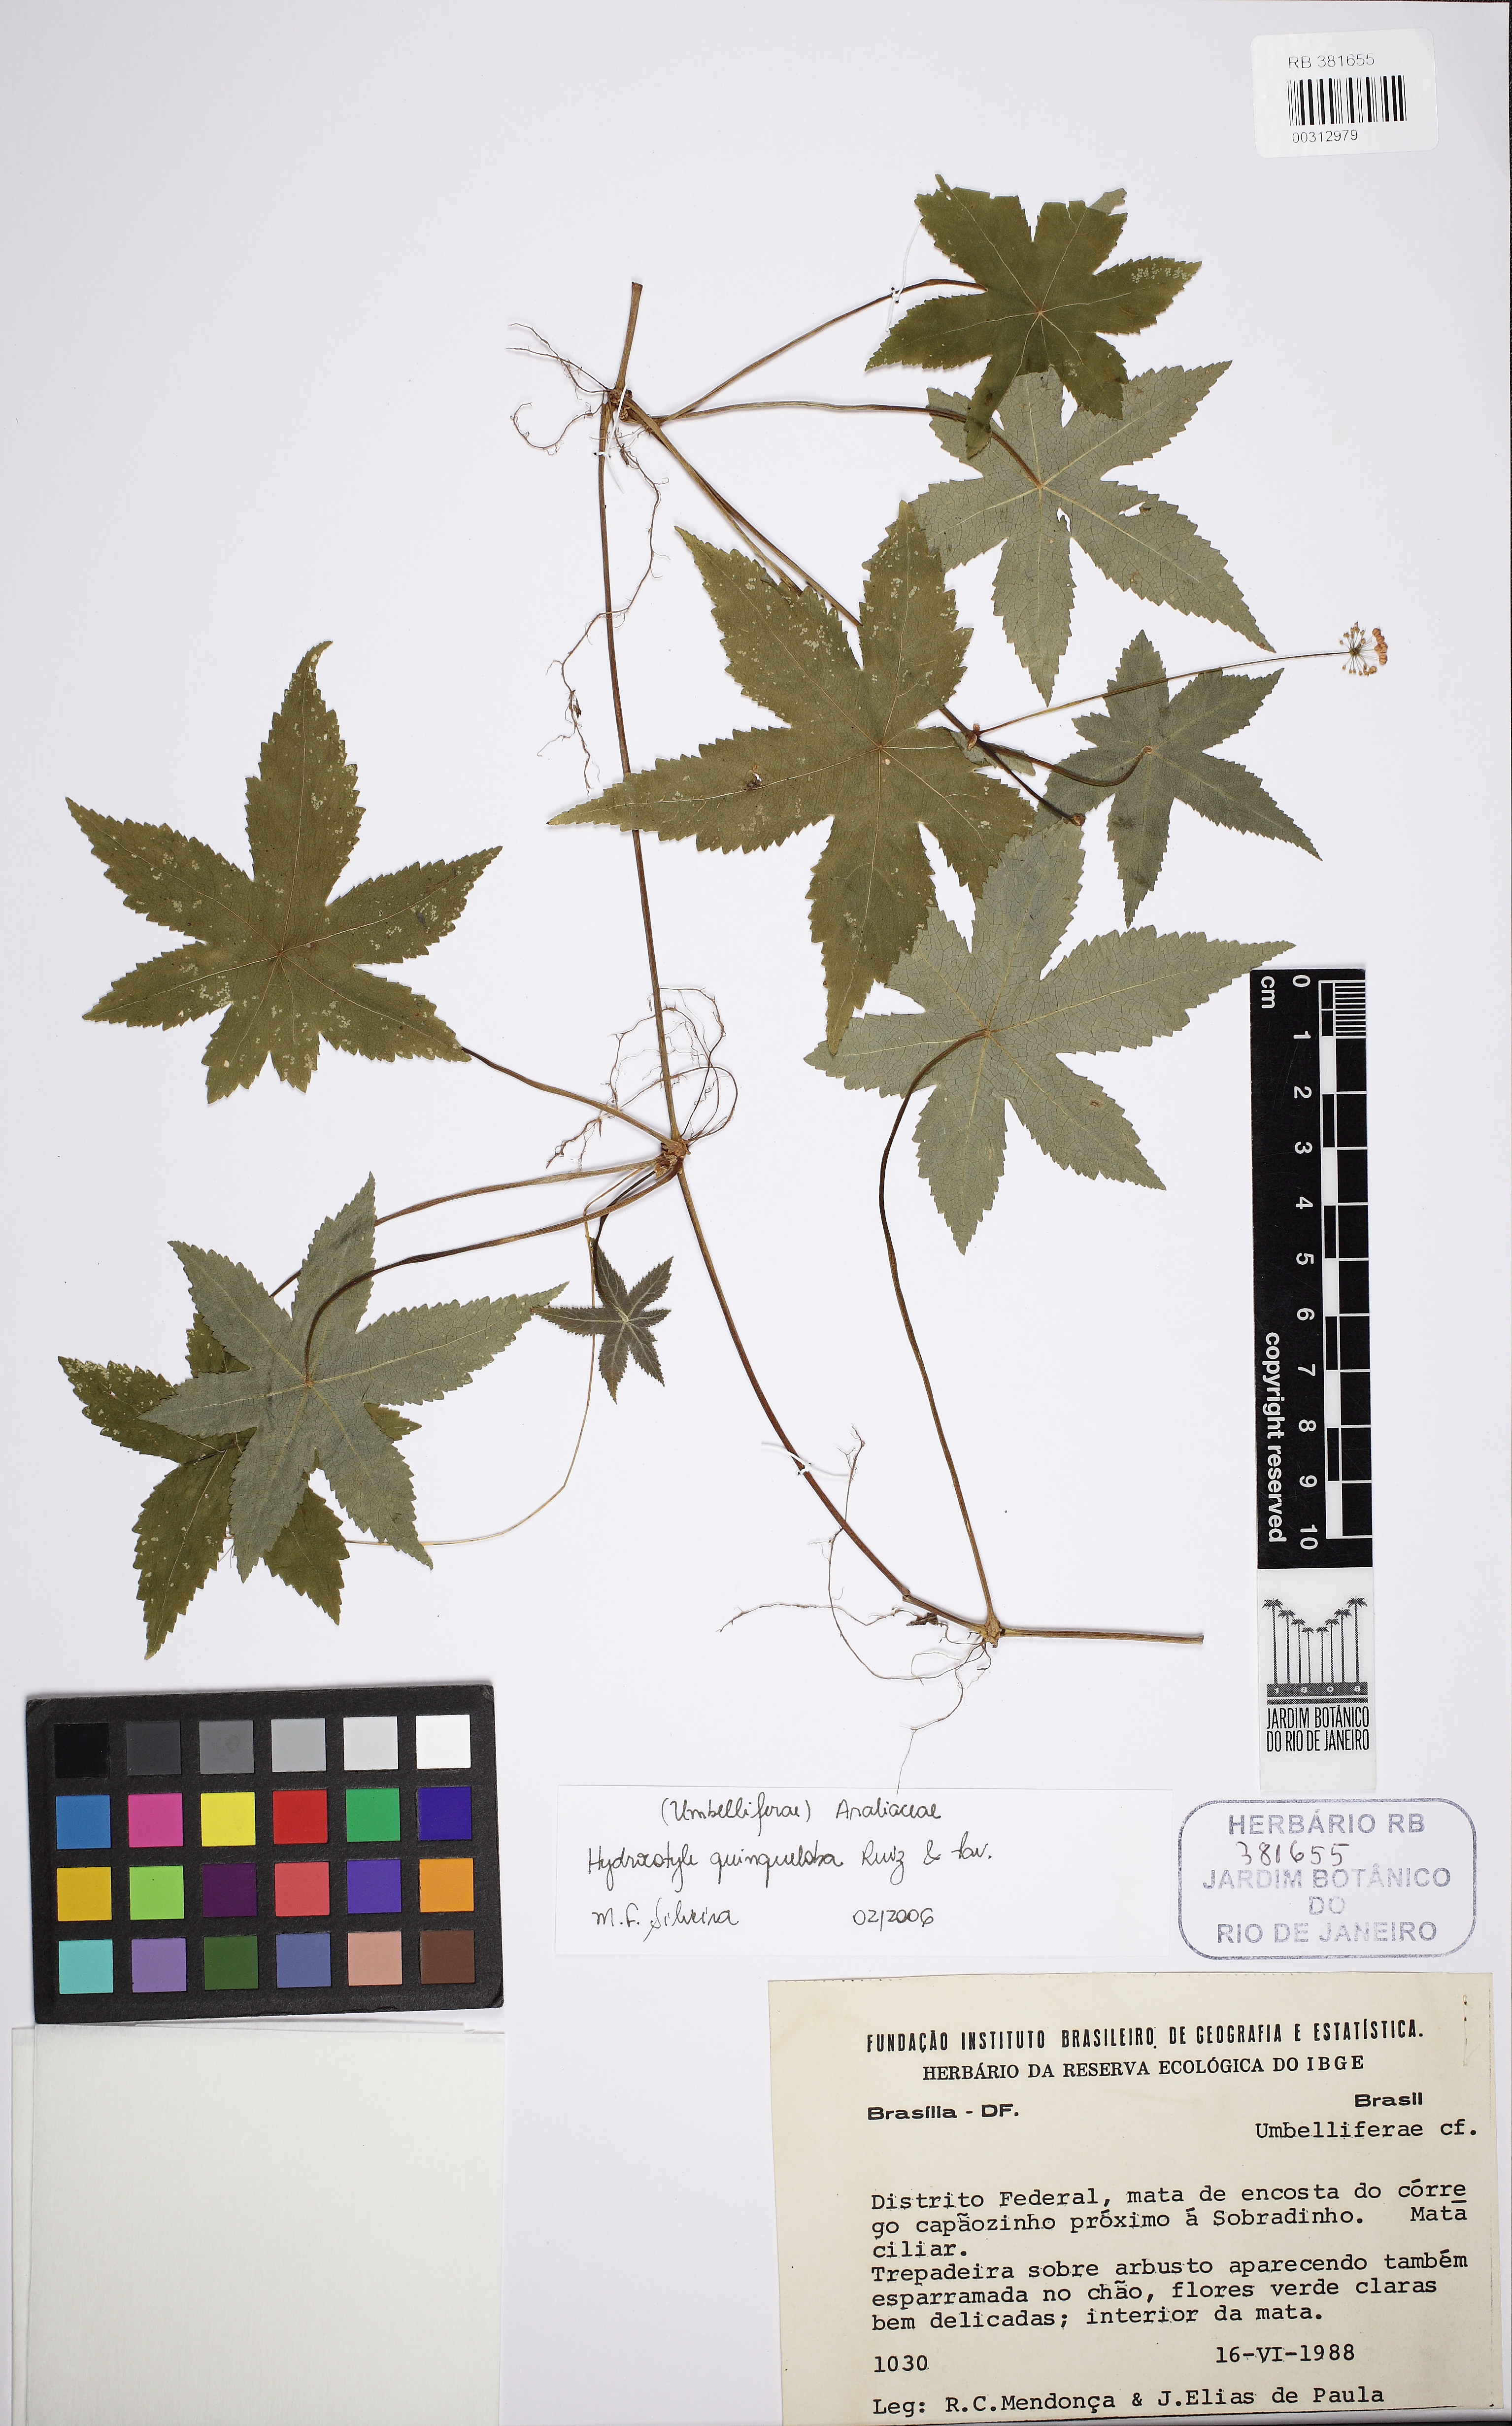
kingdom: Plantae
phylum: Tracheophyta
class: Magnoliopsida
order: Apiales
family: Araliaceae
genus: Hydrocotyle
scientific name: Hydrocotyle quinqueloba
